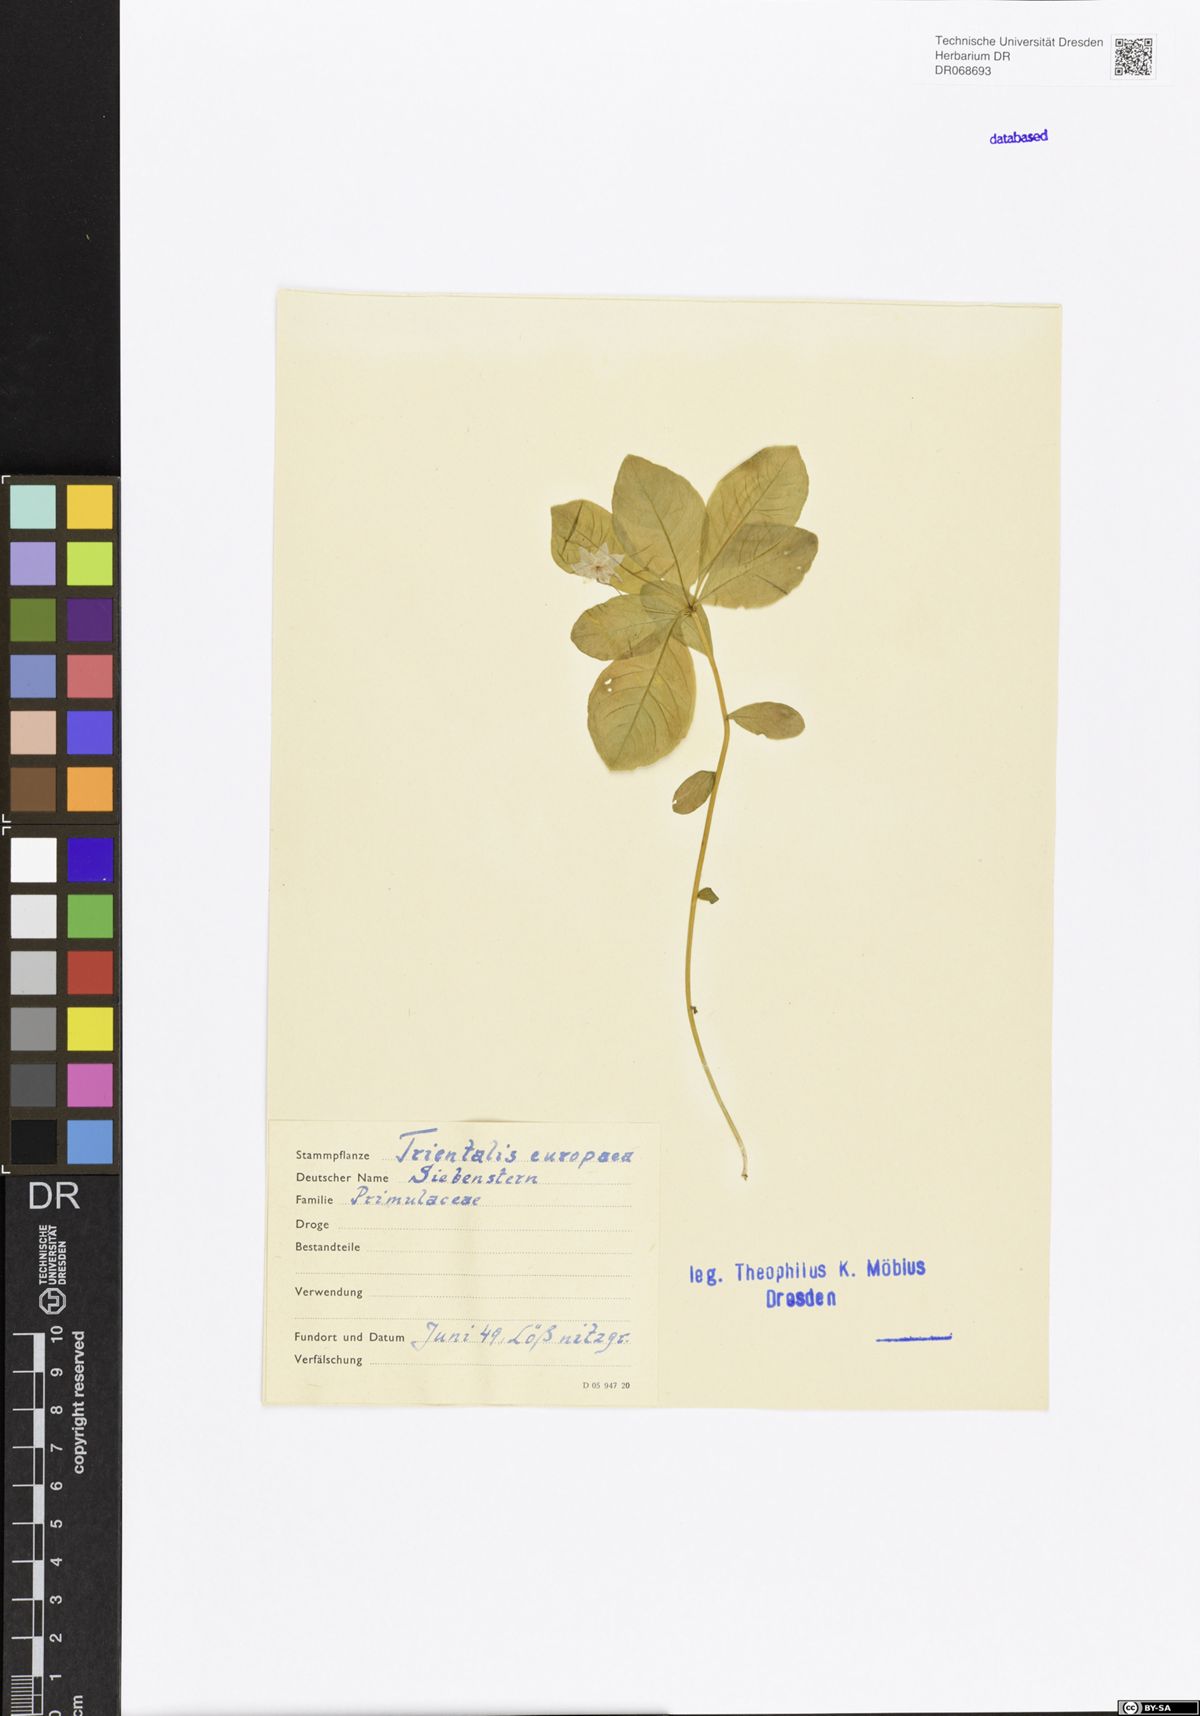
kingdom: Plantae
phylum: Tracheophyta
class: Magnoliopsida
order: Ericales
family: Primulaceae
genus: Lysimachia
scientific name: Lysimachia europaea
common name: Arctic starflower
